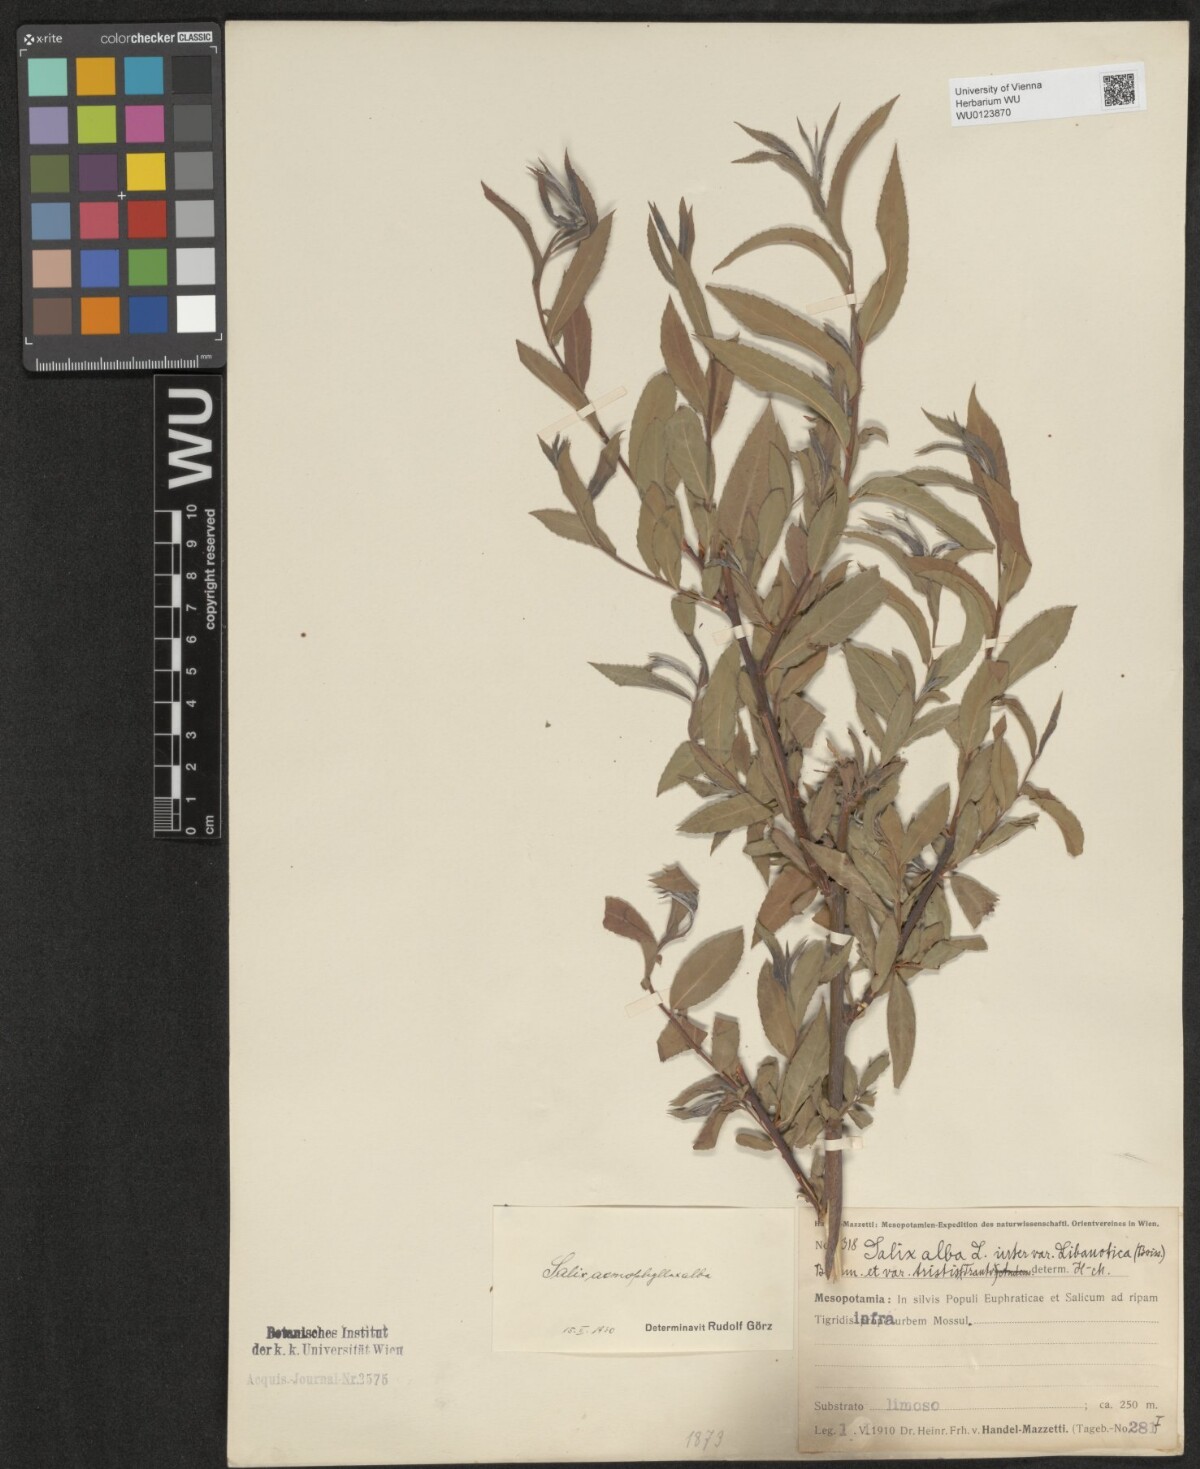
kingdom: Plantae
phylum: Tracheophyta
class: Magnoliopsida
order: Malpighiales
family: Salicaceae
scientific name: Salicaceae
